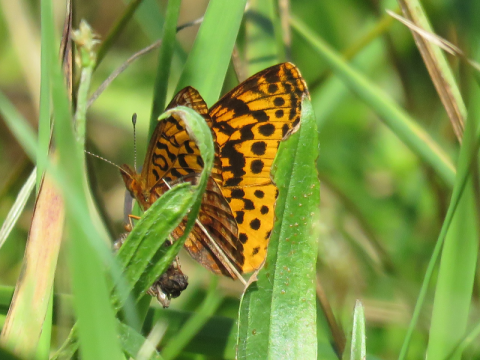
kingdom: Animalia
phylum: Arthropoda
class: Insecta
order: Lepidoptera
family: Nymphalidae
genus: Clossiana
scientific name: Clossiana toddi
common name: Meadow Fritillary
